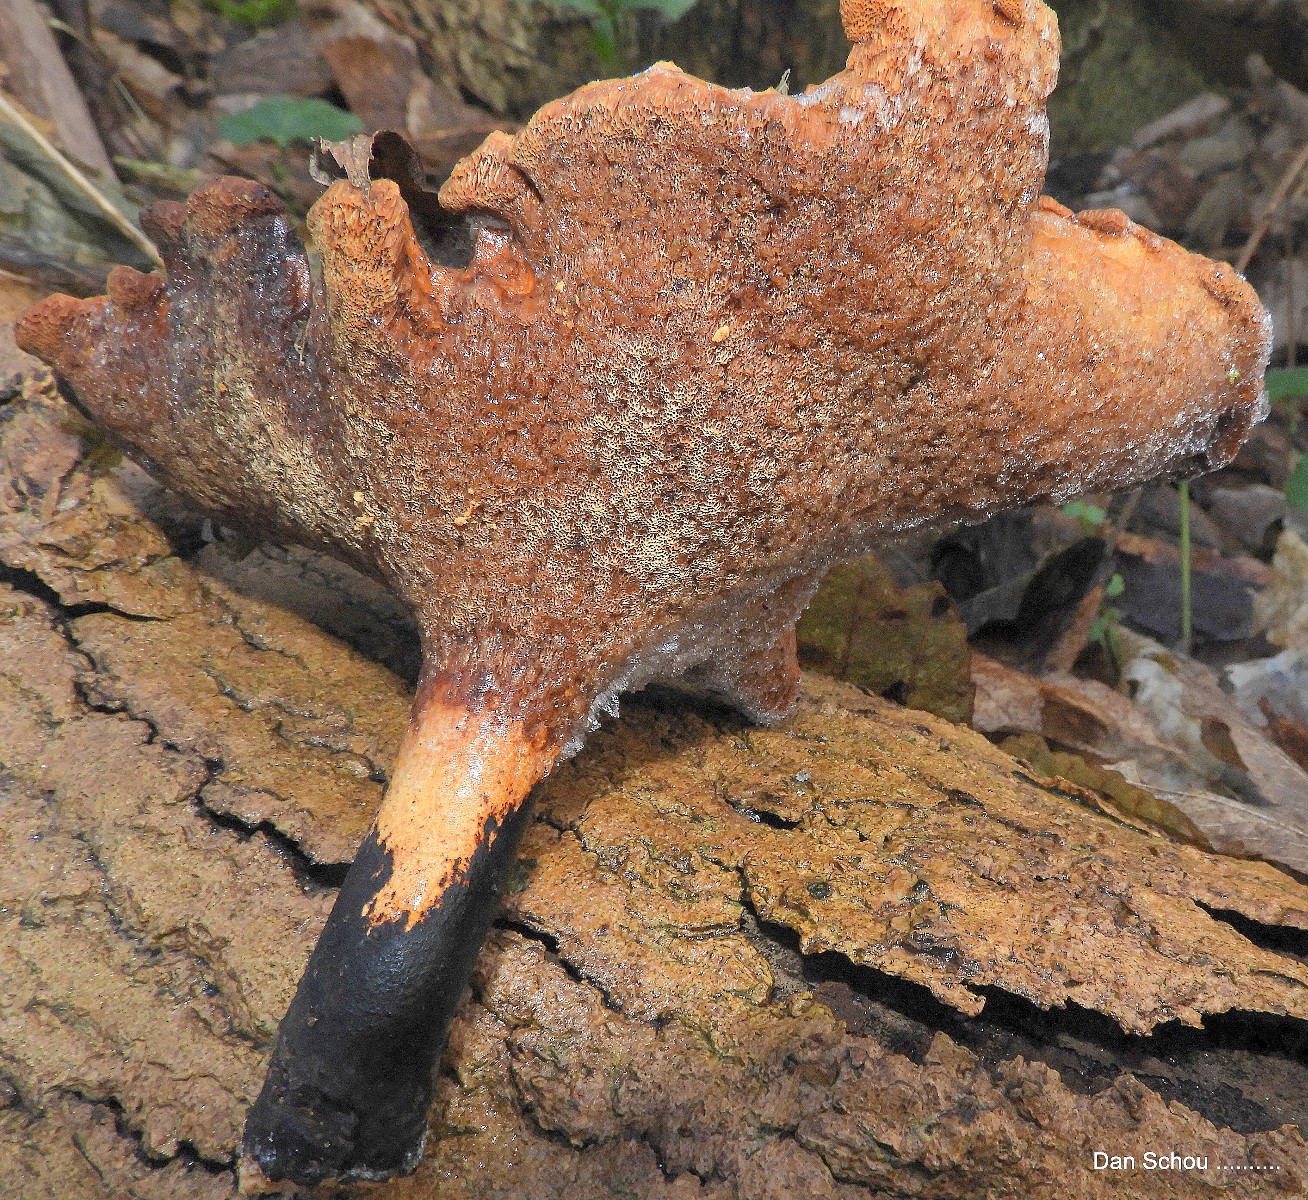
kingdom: Fungi
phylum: Basidiomycota
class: Agaricomycetes
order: Polyporales
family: Polyporaceae
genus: Cerioporus
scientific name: Cerioporus varius
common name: foranderlig stilkporesvamp
